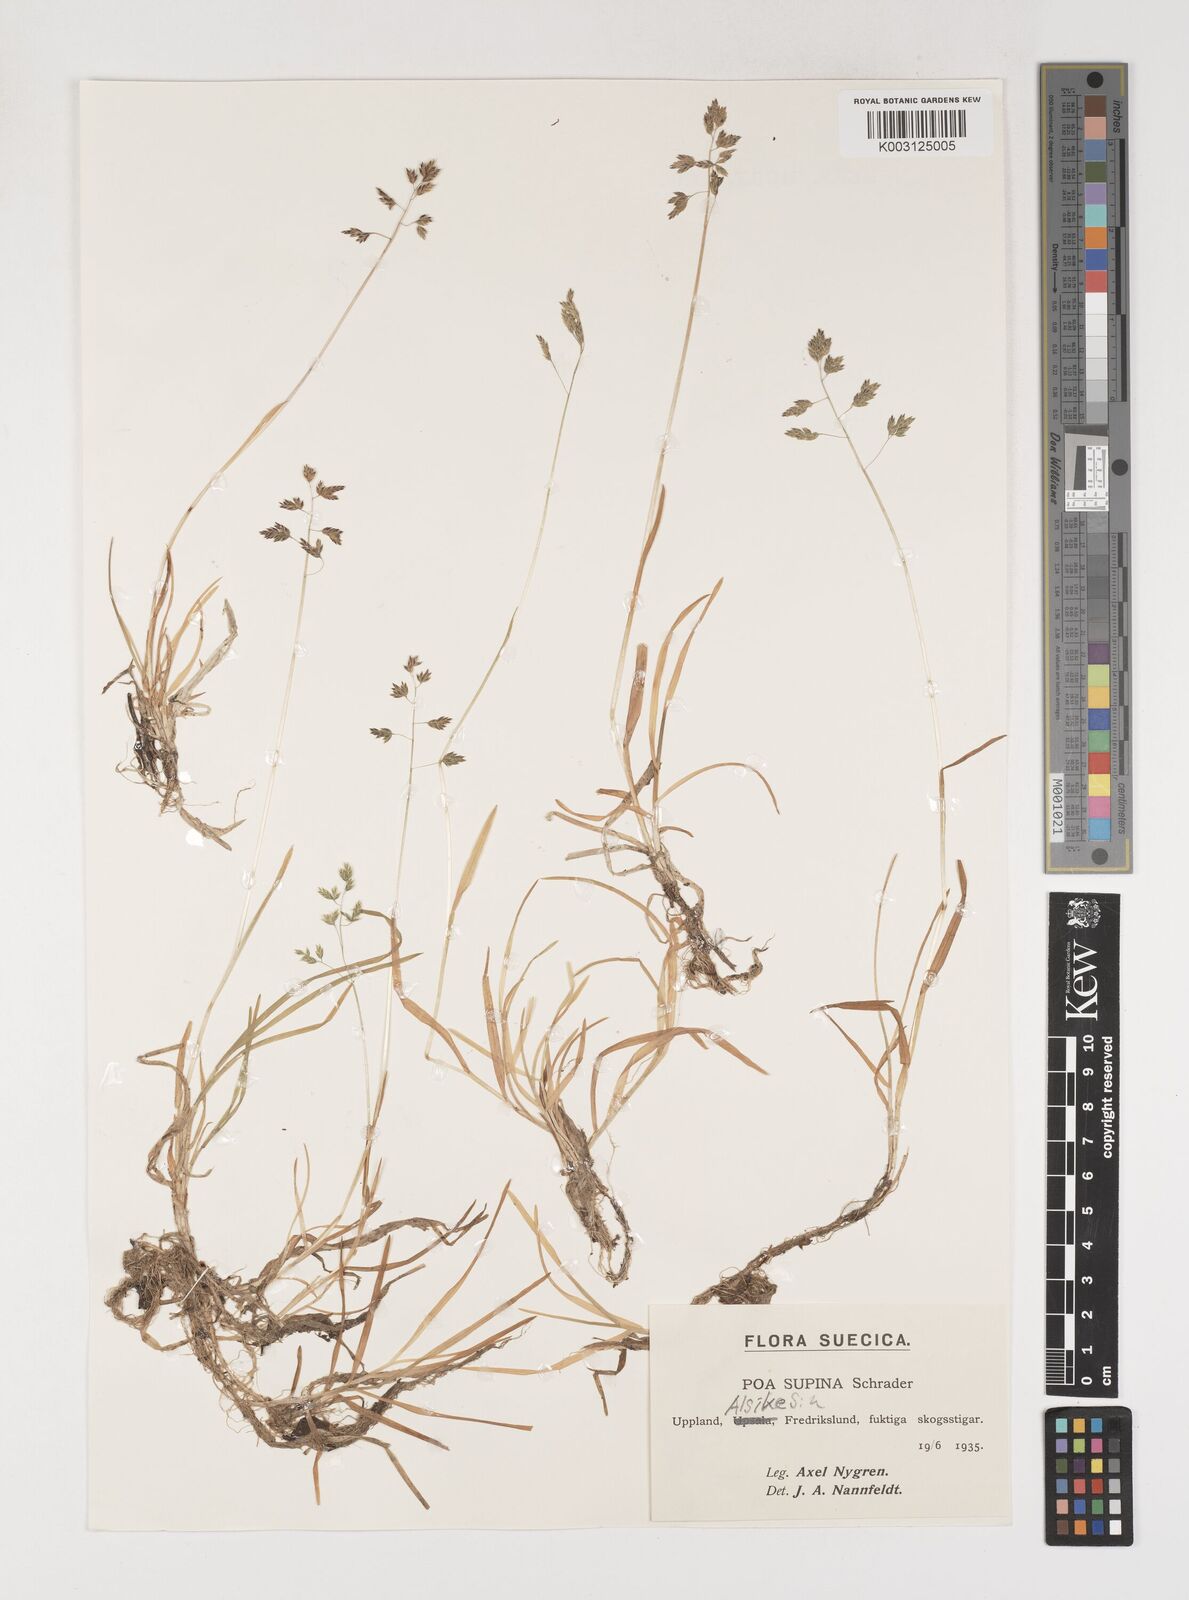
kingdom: Plantae
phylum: Tracheophyta
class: Liliopsida
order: Poales
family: Poaceae
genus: Poa
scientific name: Poa supina
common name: Supina bluegrass
